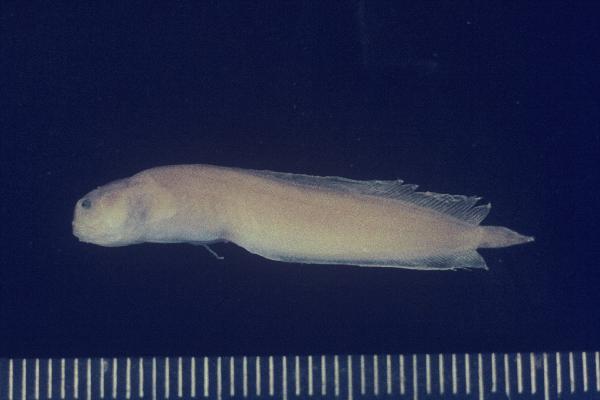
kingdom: Animalia
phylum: Chordata
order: Ophidiiformes
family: Bythitidae
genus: Dinematichthys
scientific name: Dinematichthys iluocoeteoides
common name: Small eye brotula
